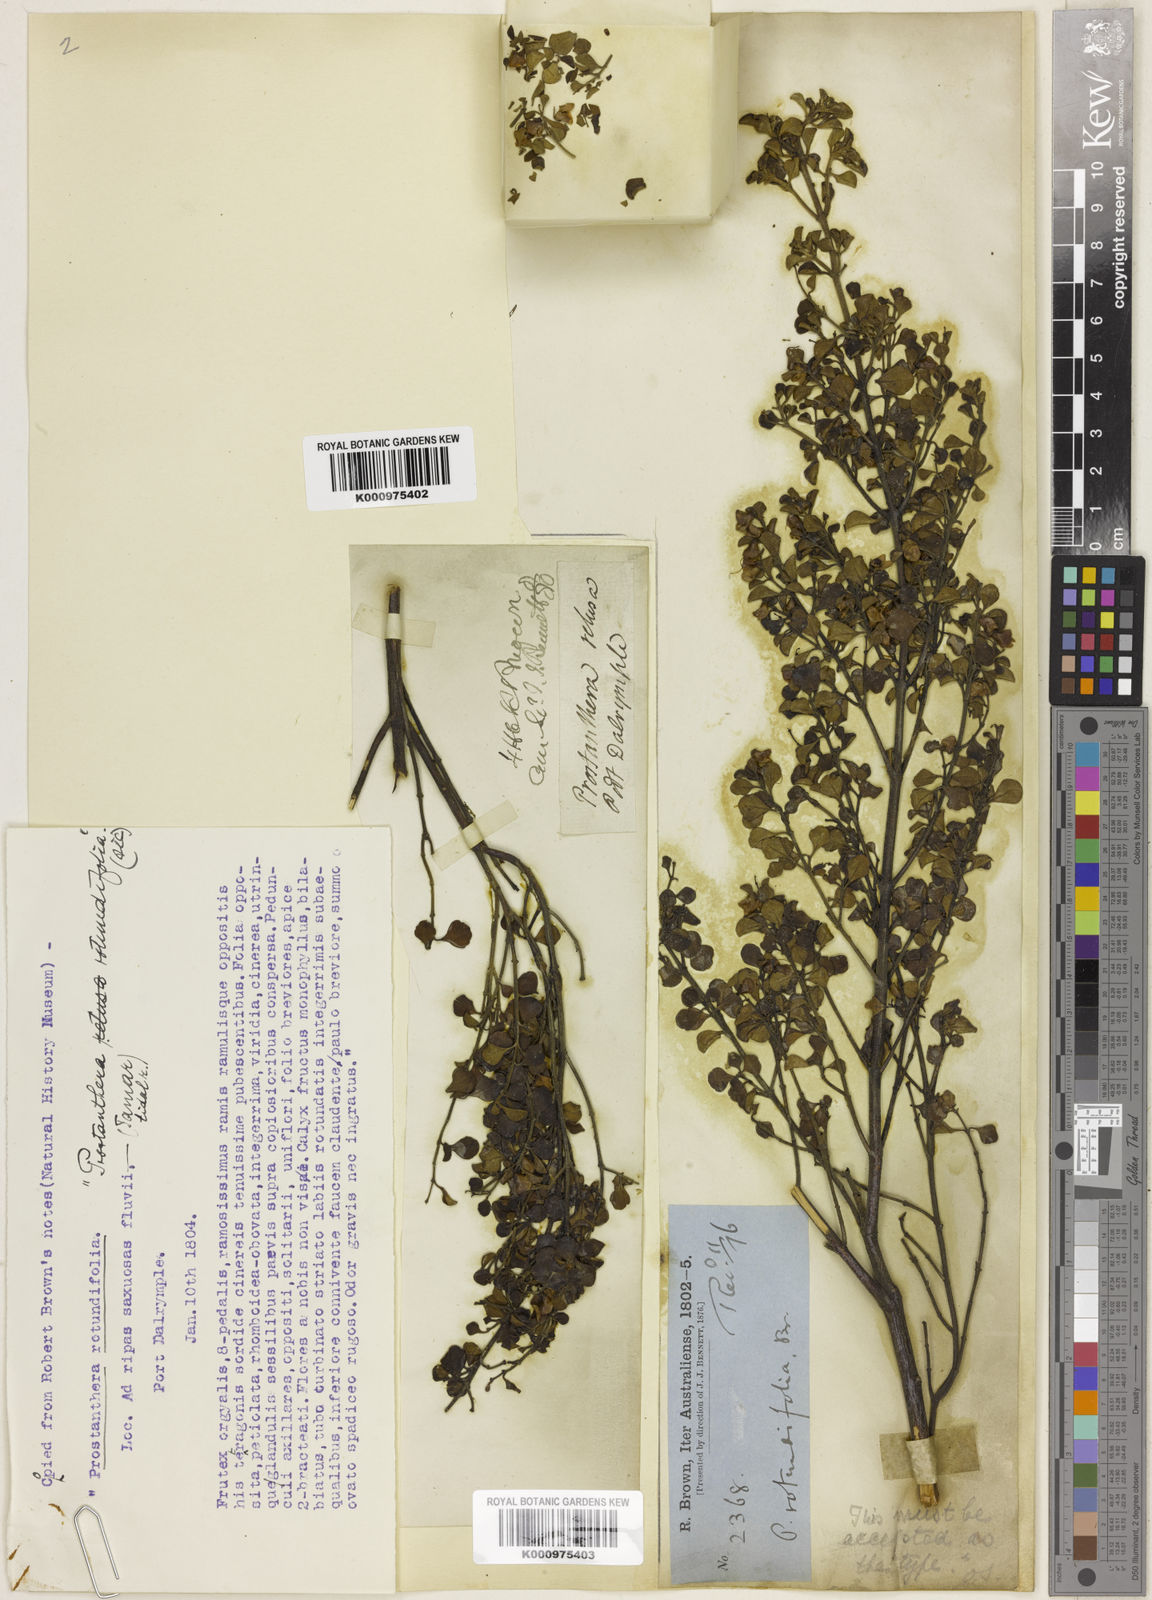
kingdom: Plantae
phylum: Tracheophyta
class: Magnoliopsida
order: Lamiales
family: Lamiaceae
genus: Prostanthera
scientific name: Prostanthera rotundifolia
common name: Round-leaf mintbush
